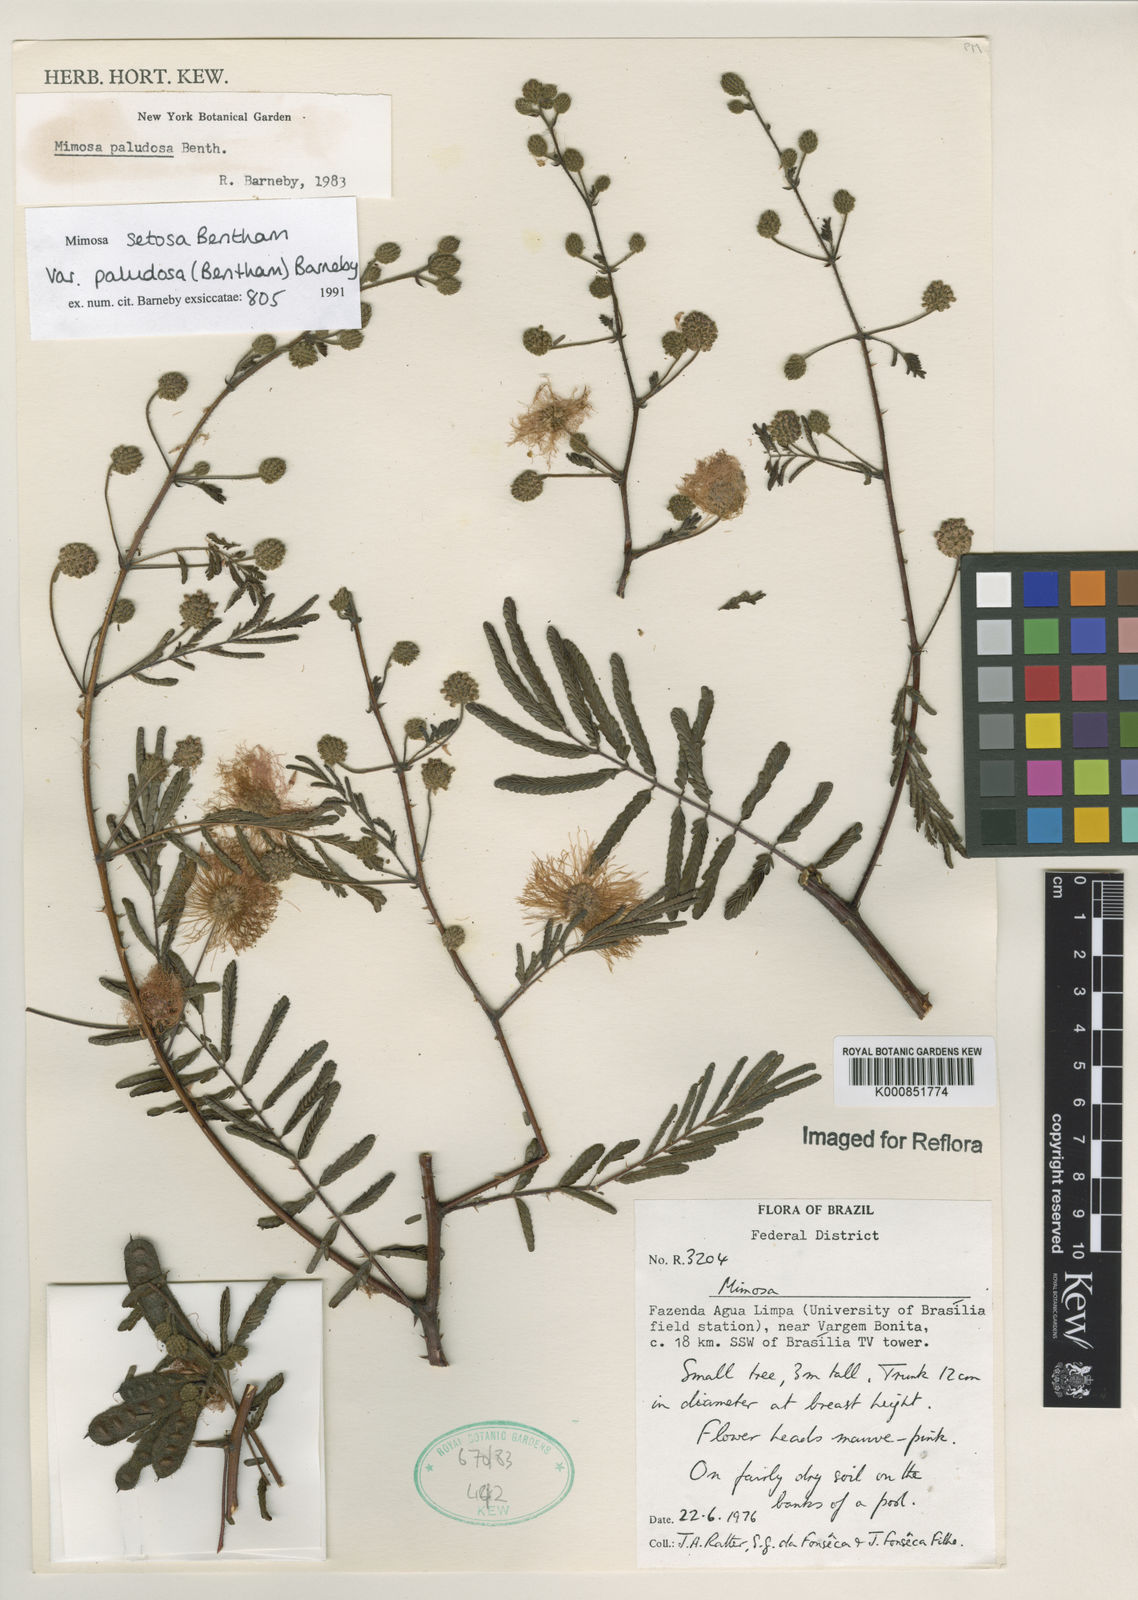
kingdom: Plantae
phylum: Tracheophyta
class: Magnoliopsida
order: Fabales
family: Fabaceae
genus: Mimosa
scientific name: Mimosa paludosa
